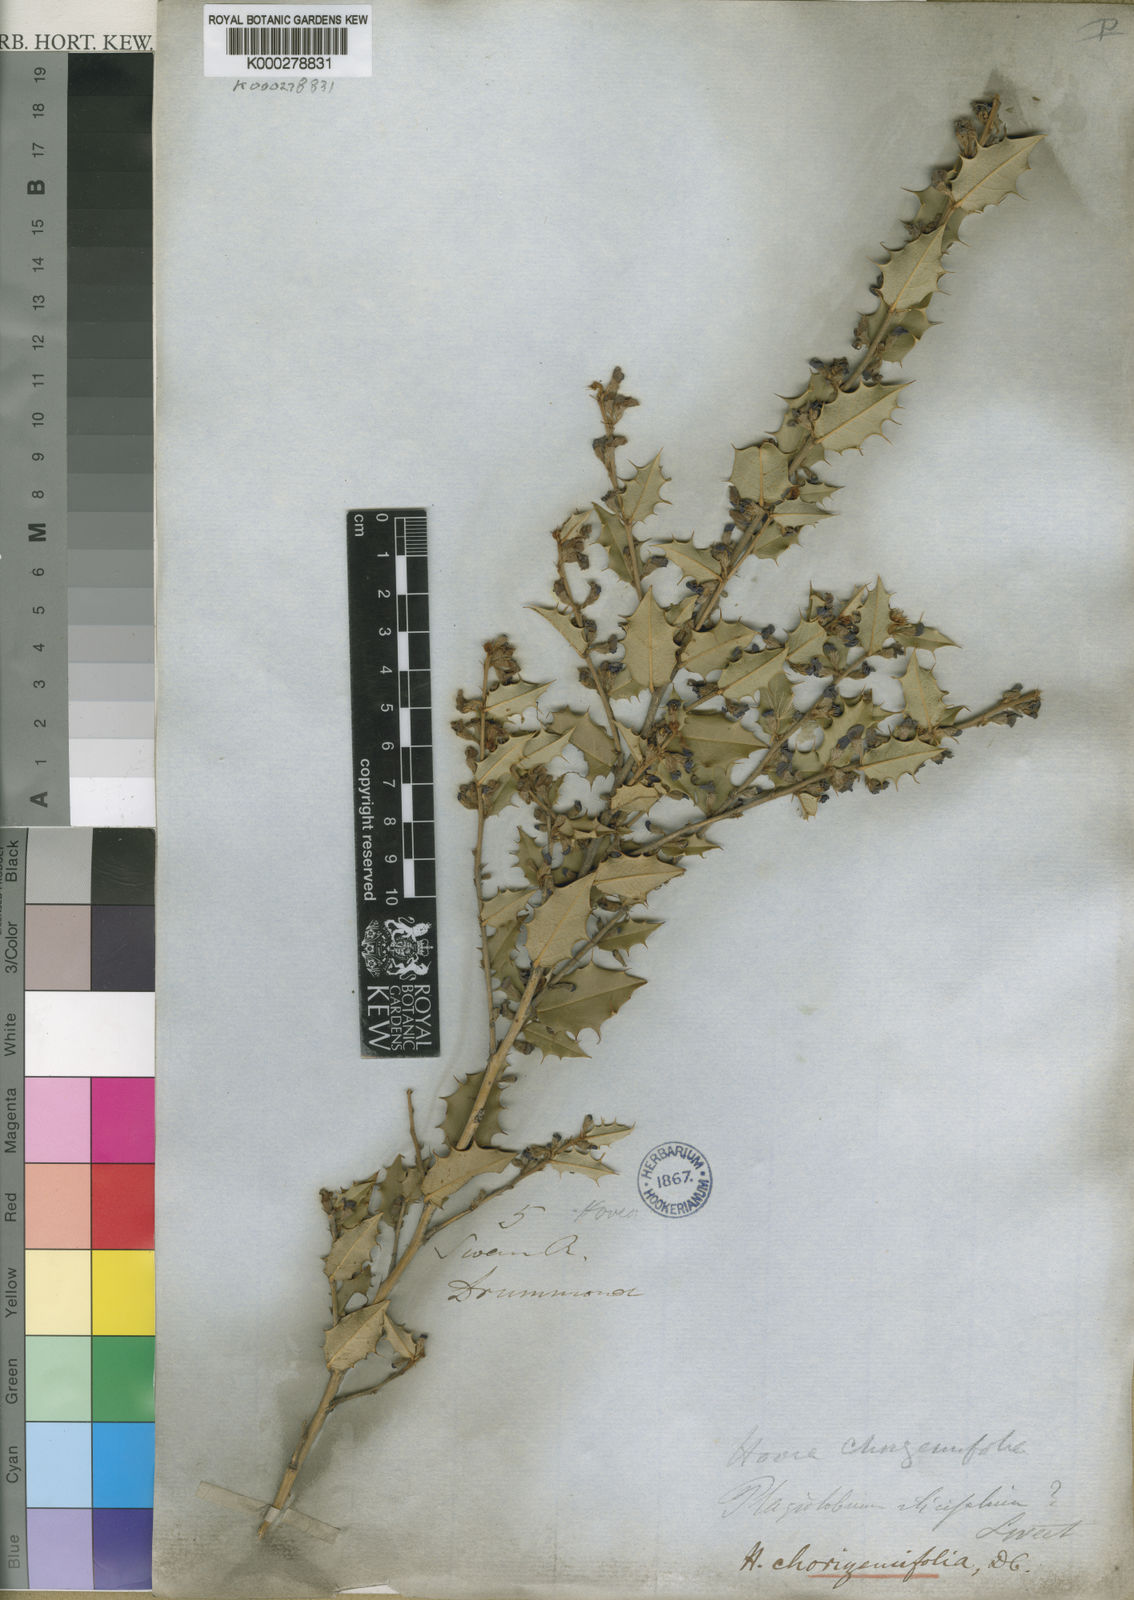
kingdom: Plantae
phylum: Tracheophyta
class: Magnoliopsida
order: Fabales
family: Fabaceae
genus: Hovea
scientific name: Hovea chorizemifolia
